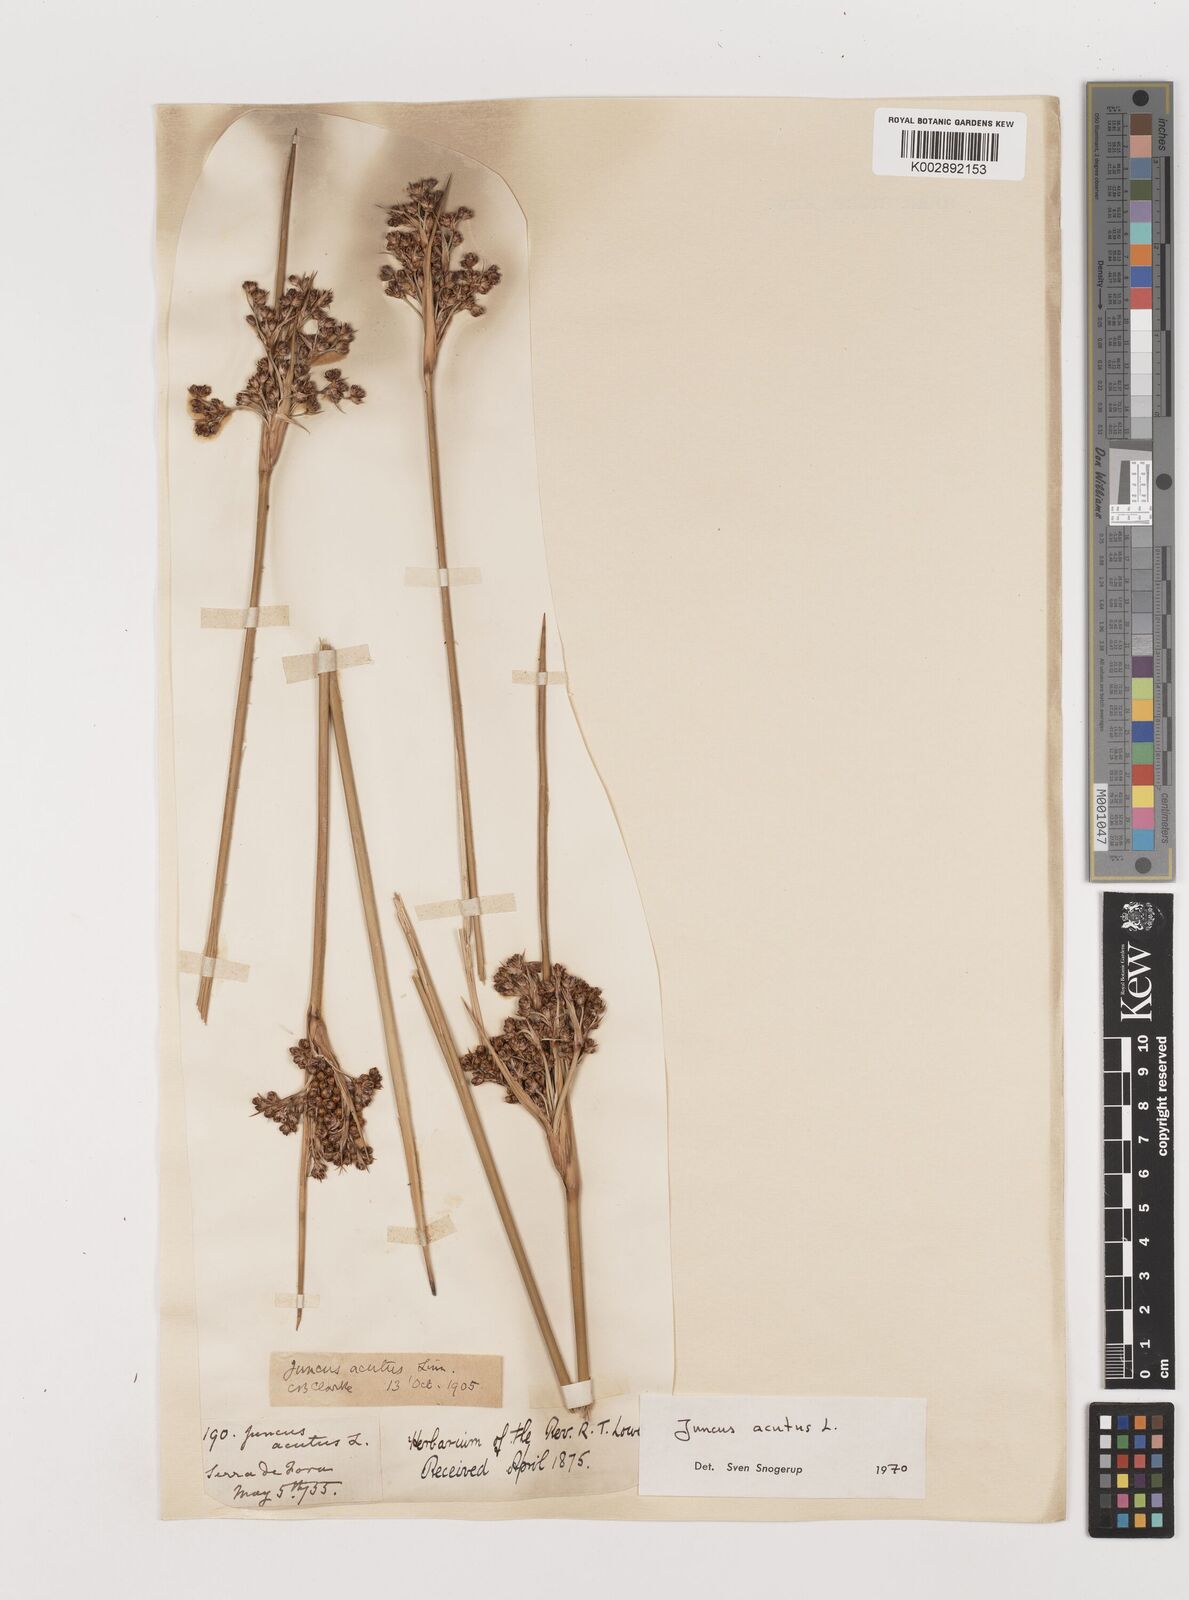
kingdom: Plantae
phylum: Tracheophyta
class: Liliopsida
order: Poales
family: Juncaceae
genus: Juncus
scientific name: Juncus acutus
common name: Sharp rush
